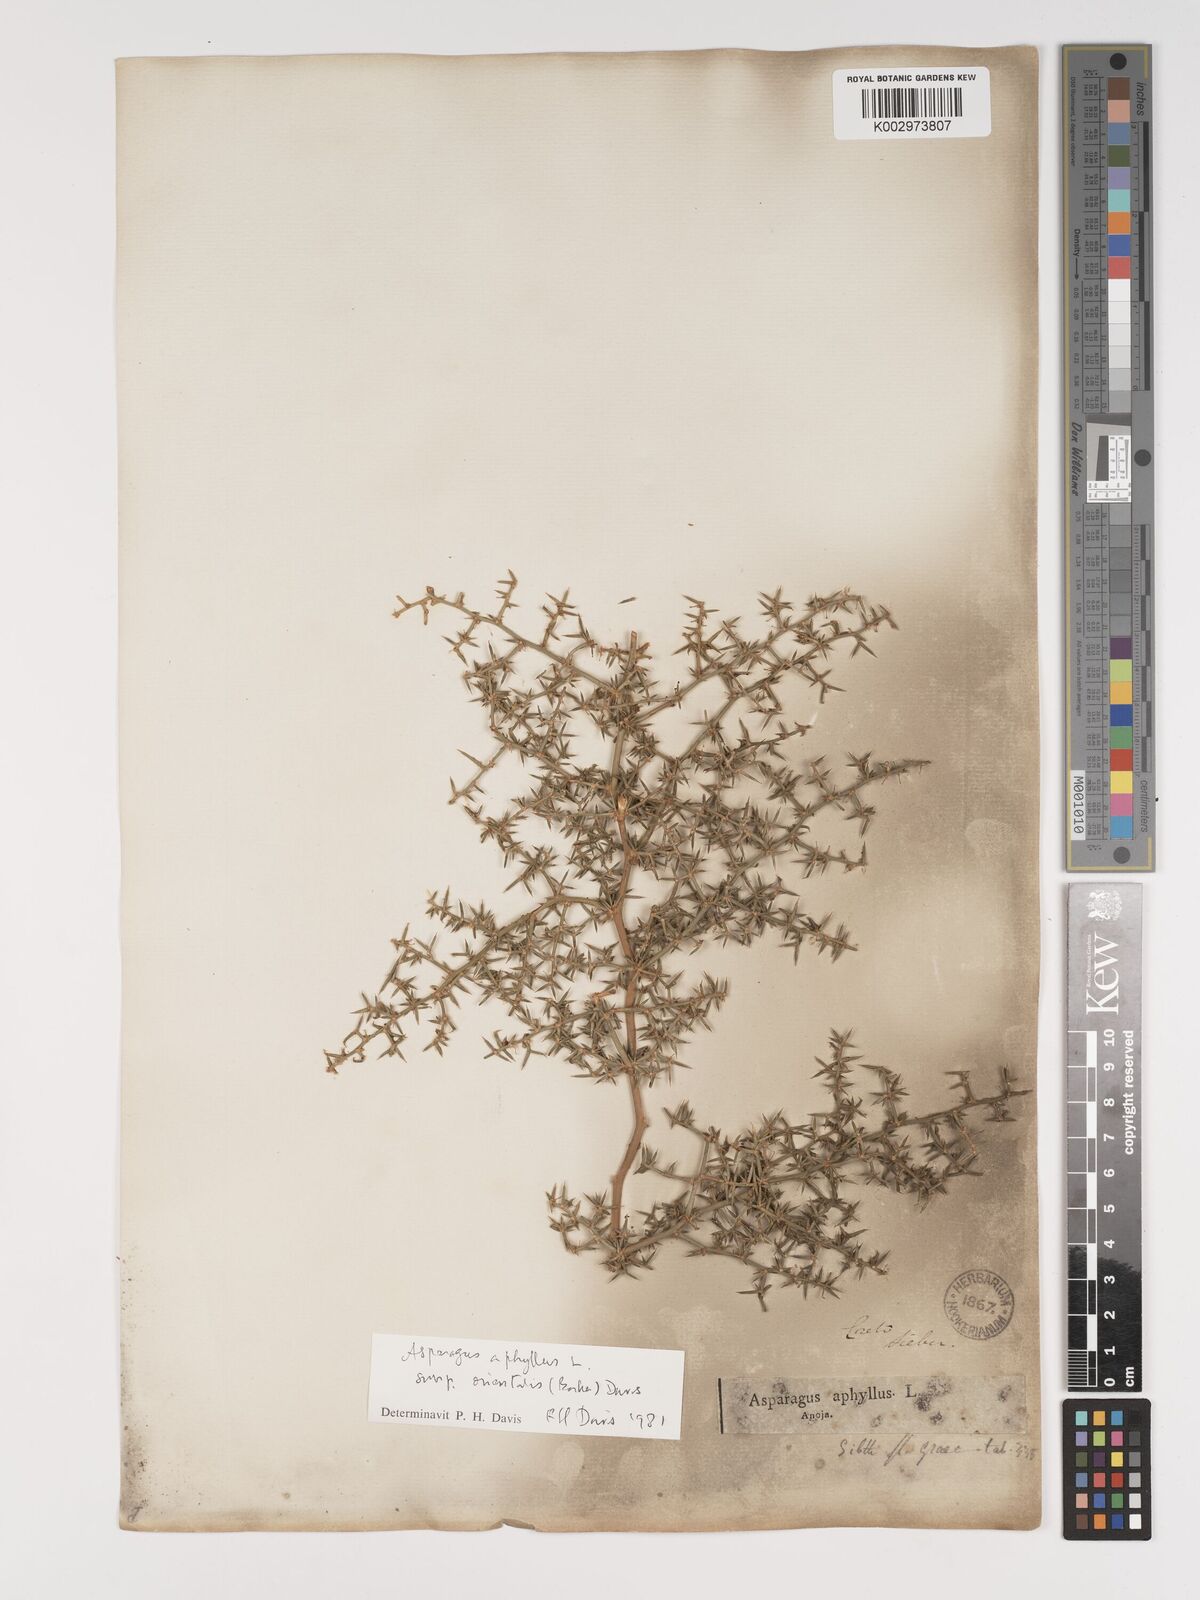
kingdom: Plantae
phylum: Tracheophyta
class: Liliopsida
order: Asparagales
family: Asparagaceae
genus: Asparagus
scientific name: Asparagus aphyllus
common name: Mediterranean asparagus
